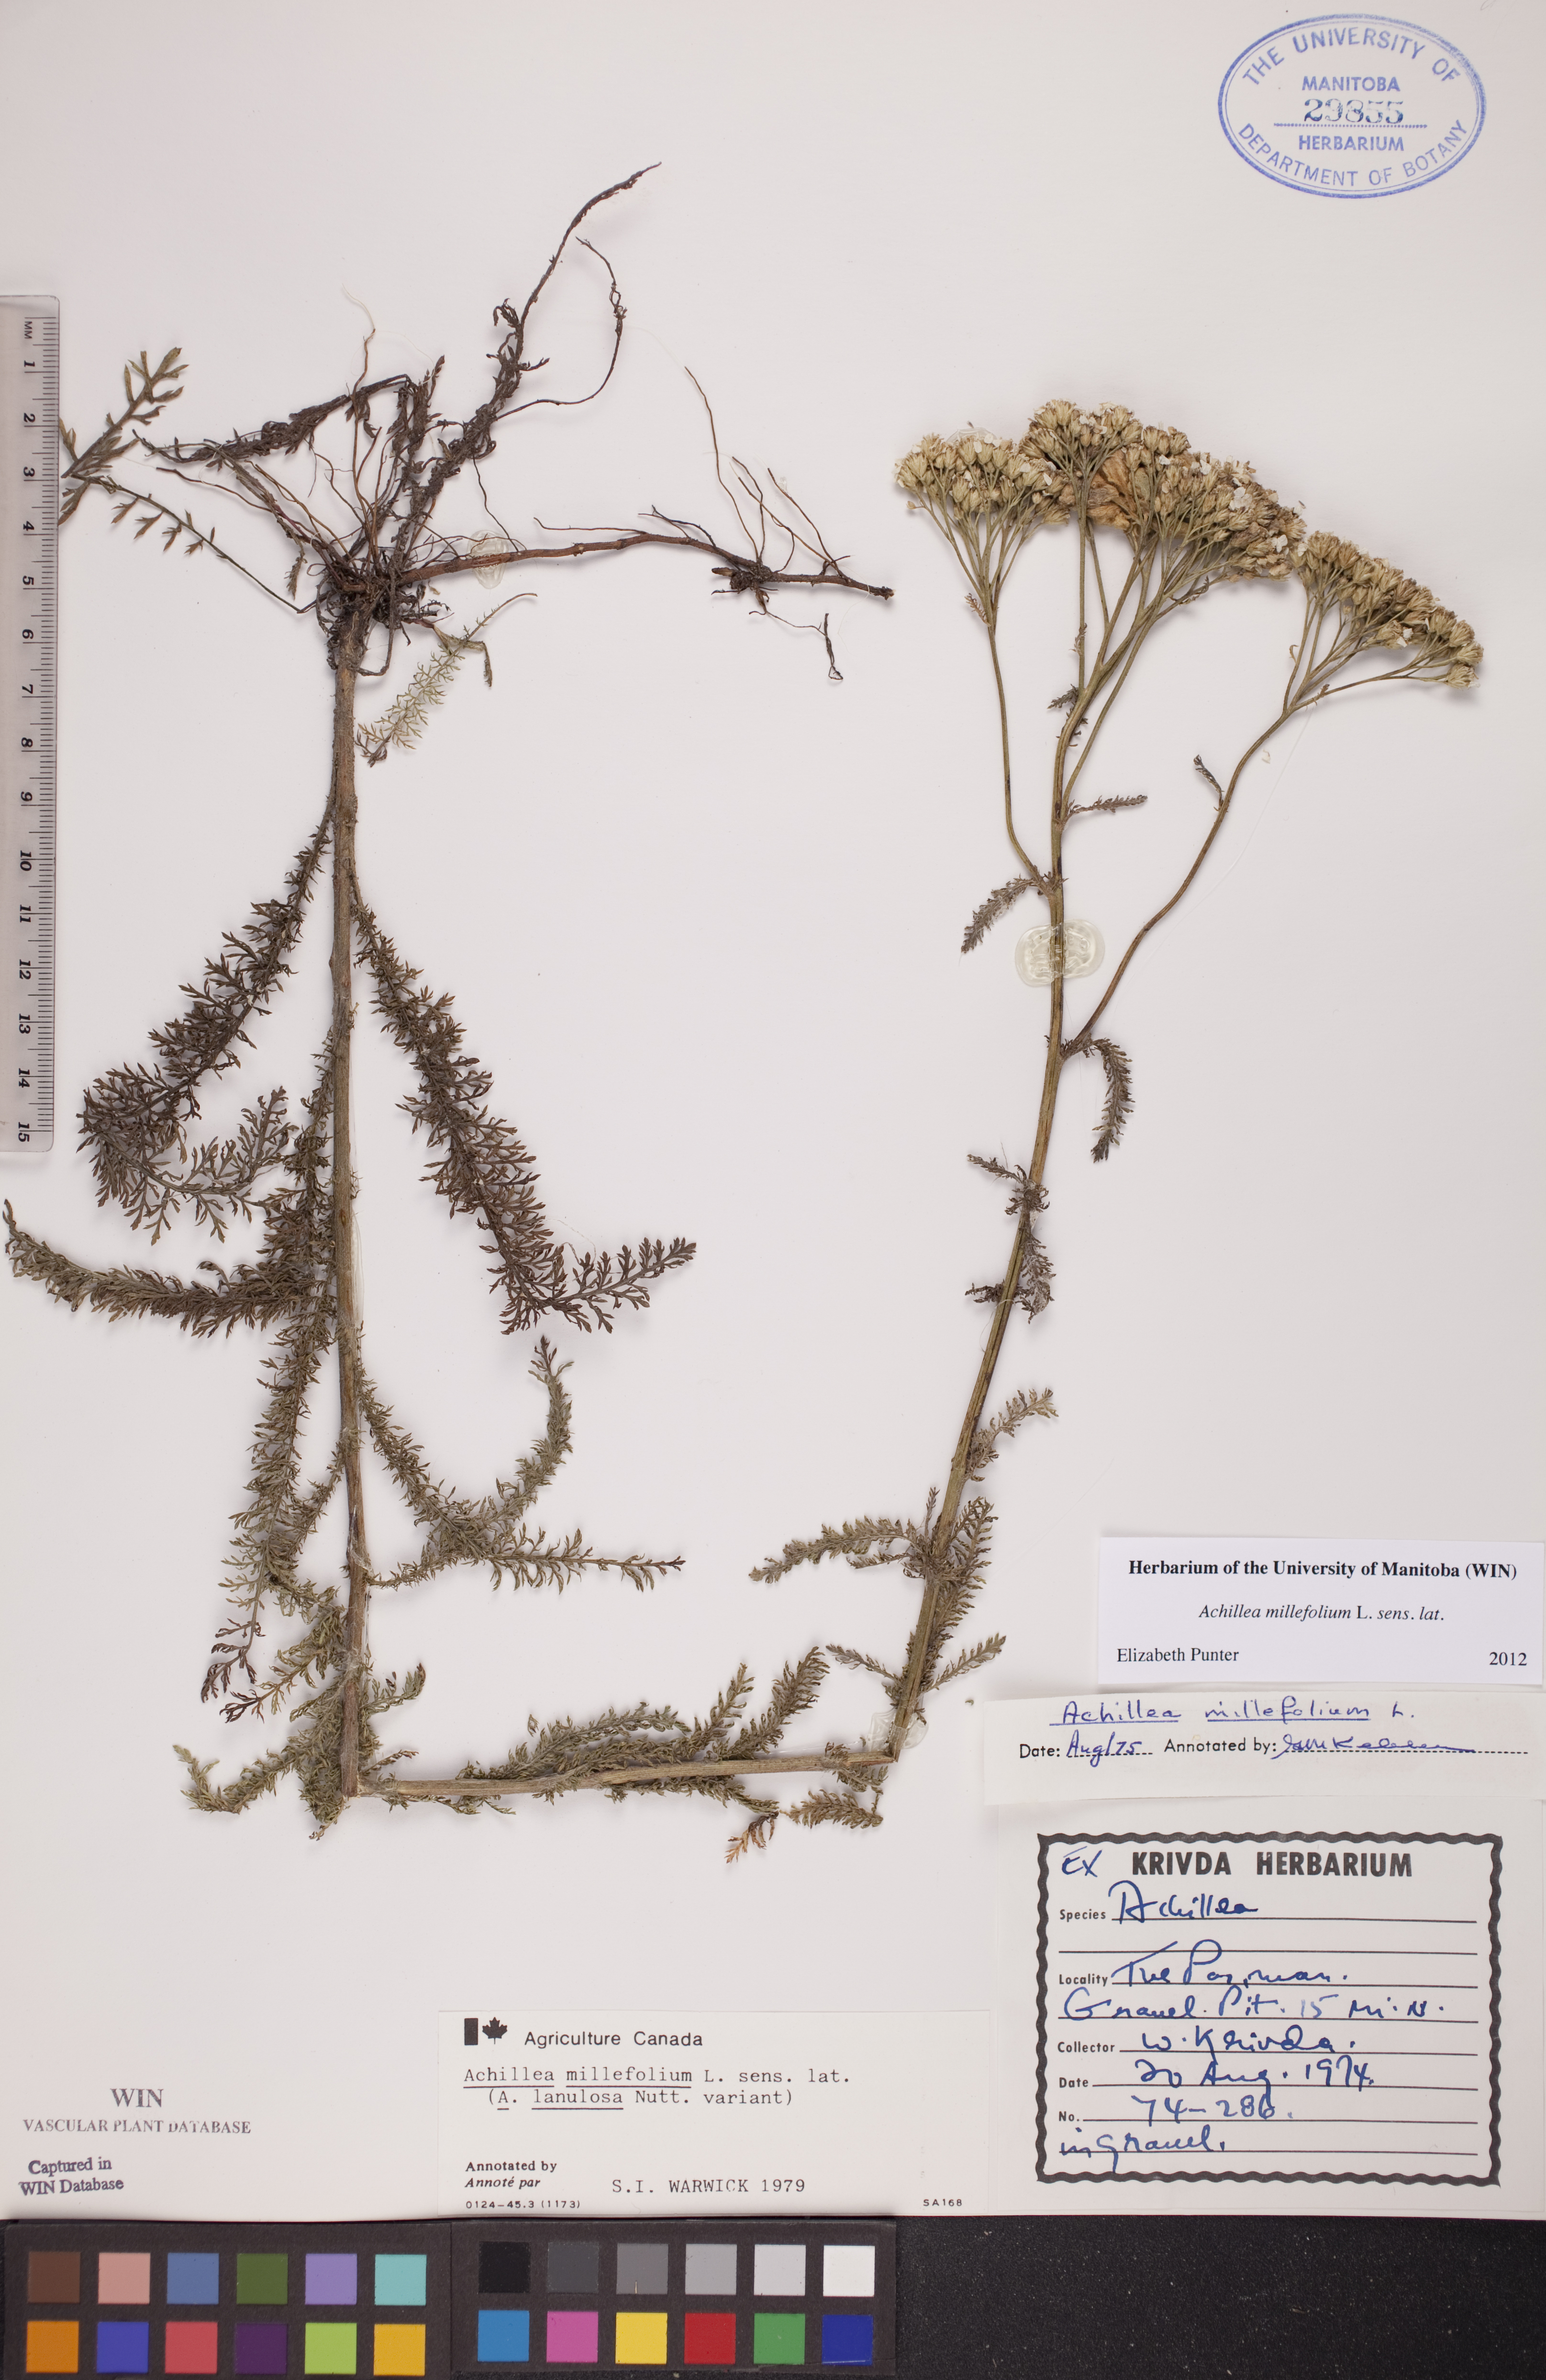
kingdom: Plantae
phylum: Tracheophyta
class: Magnoliopsida
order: Asterales
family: Asteraceae
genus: Achillea
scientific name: Achillea millefolium
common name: Yarrow
